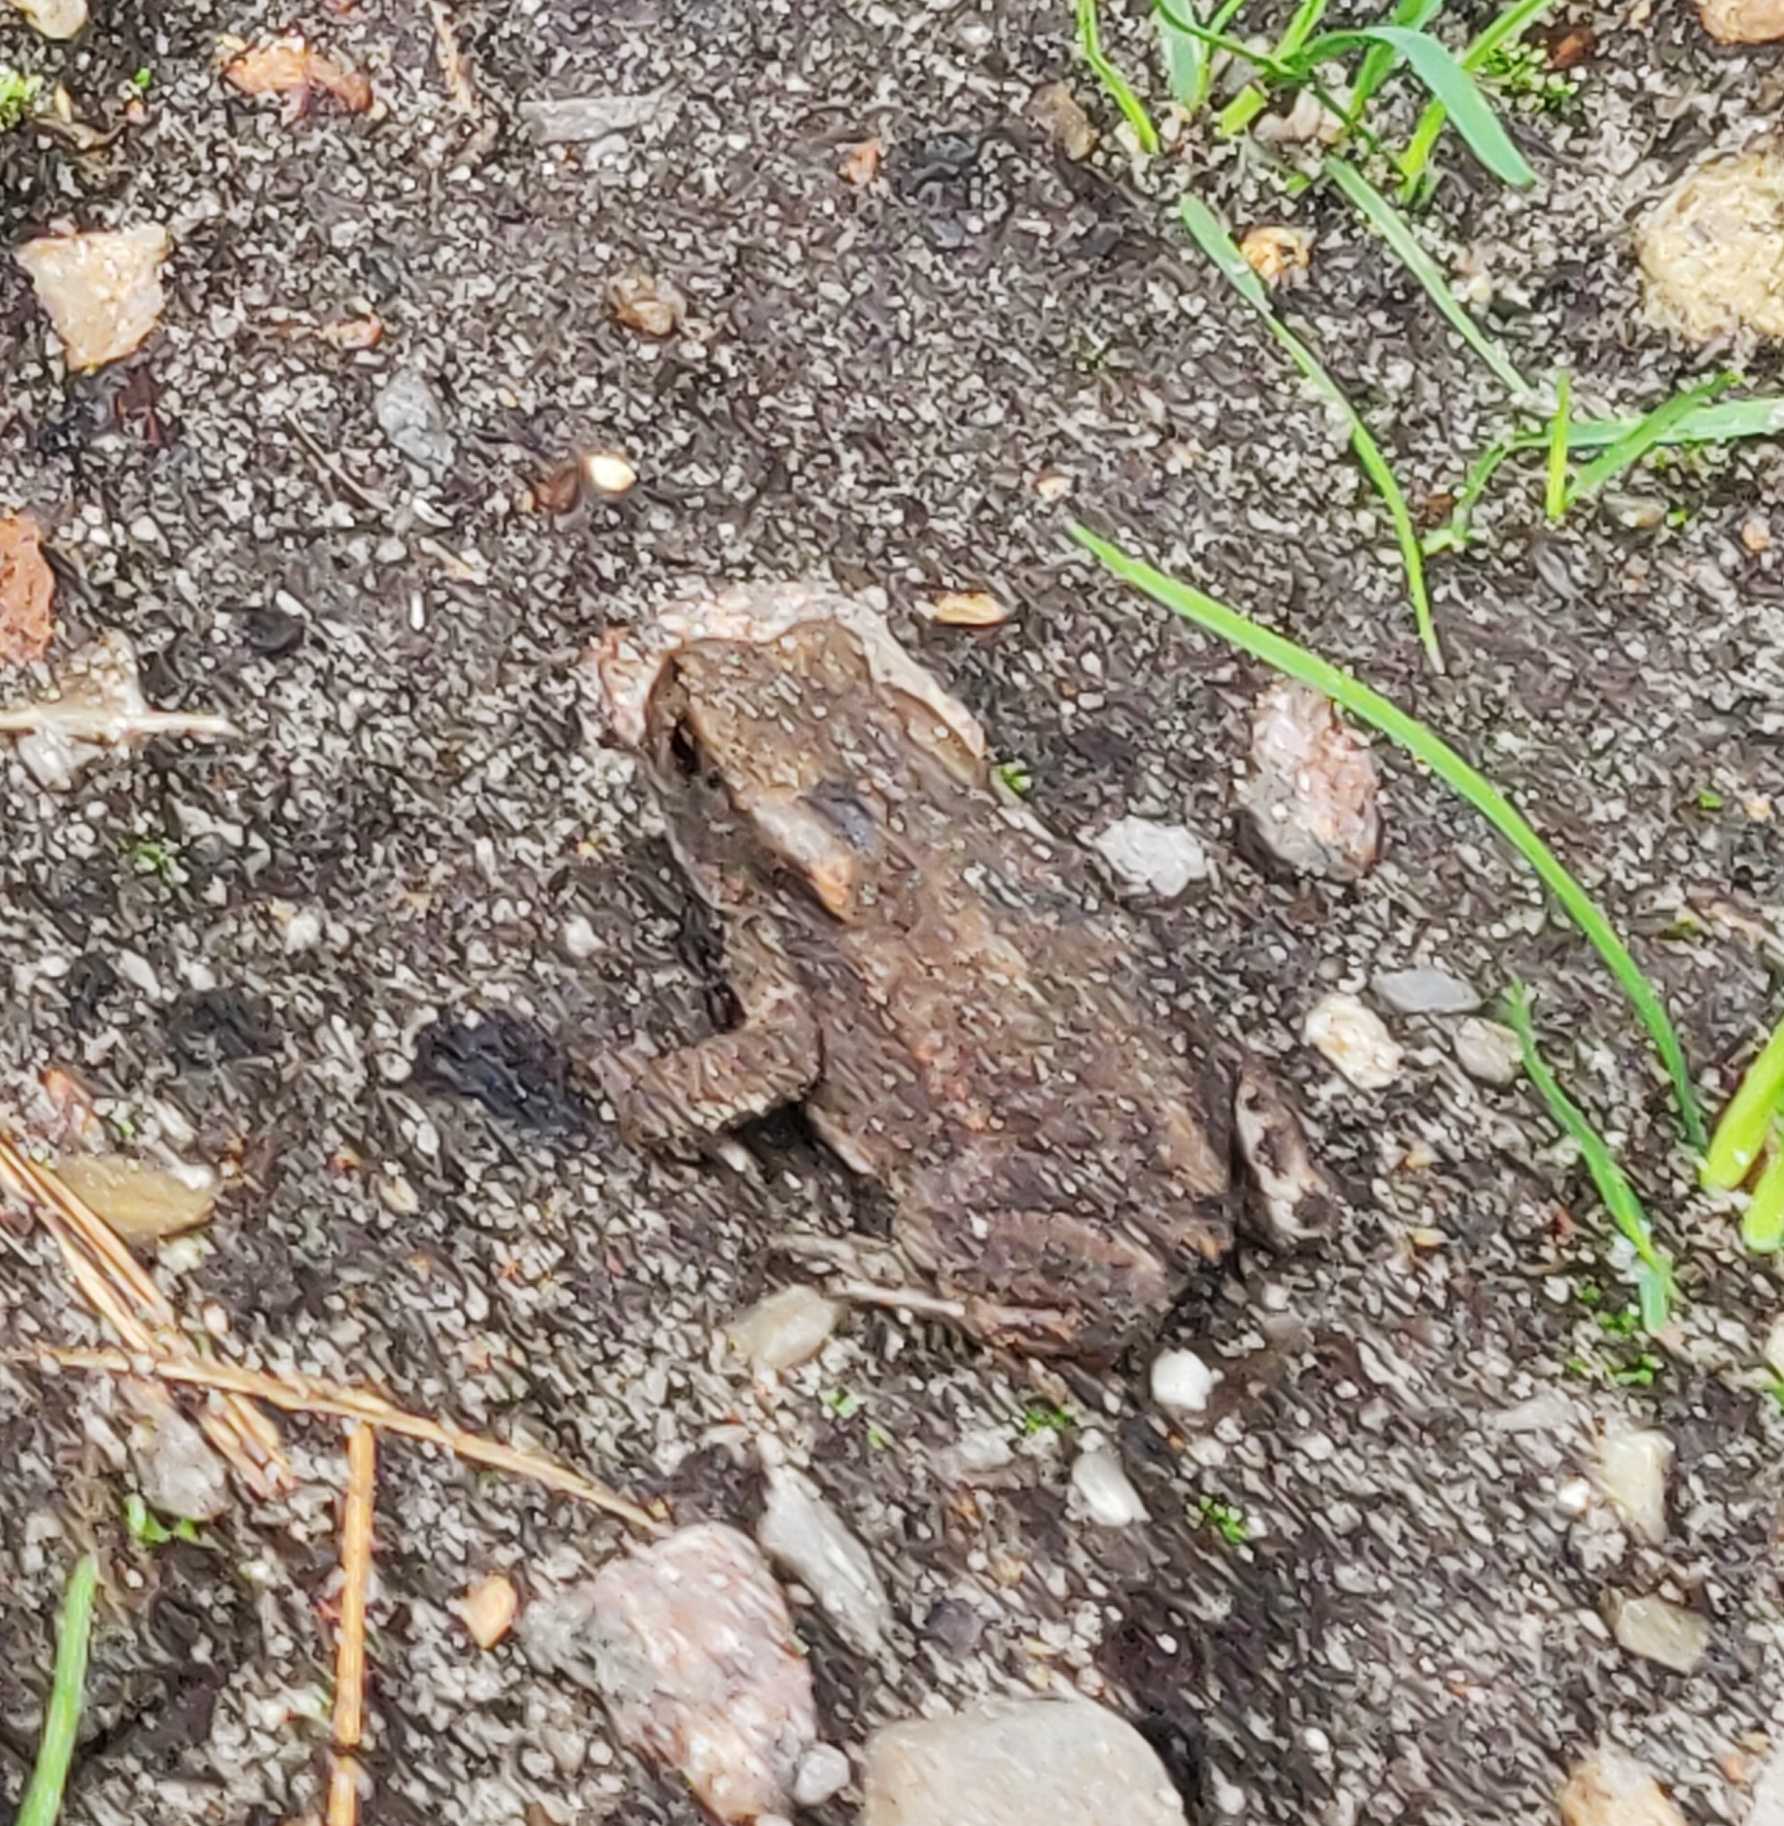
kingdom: Animalia
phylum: Chordata
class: Amphibia
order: Anura
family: Bufonidae
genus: Bufo
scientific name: Bufo bufo
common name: Skrubtudse
